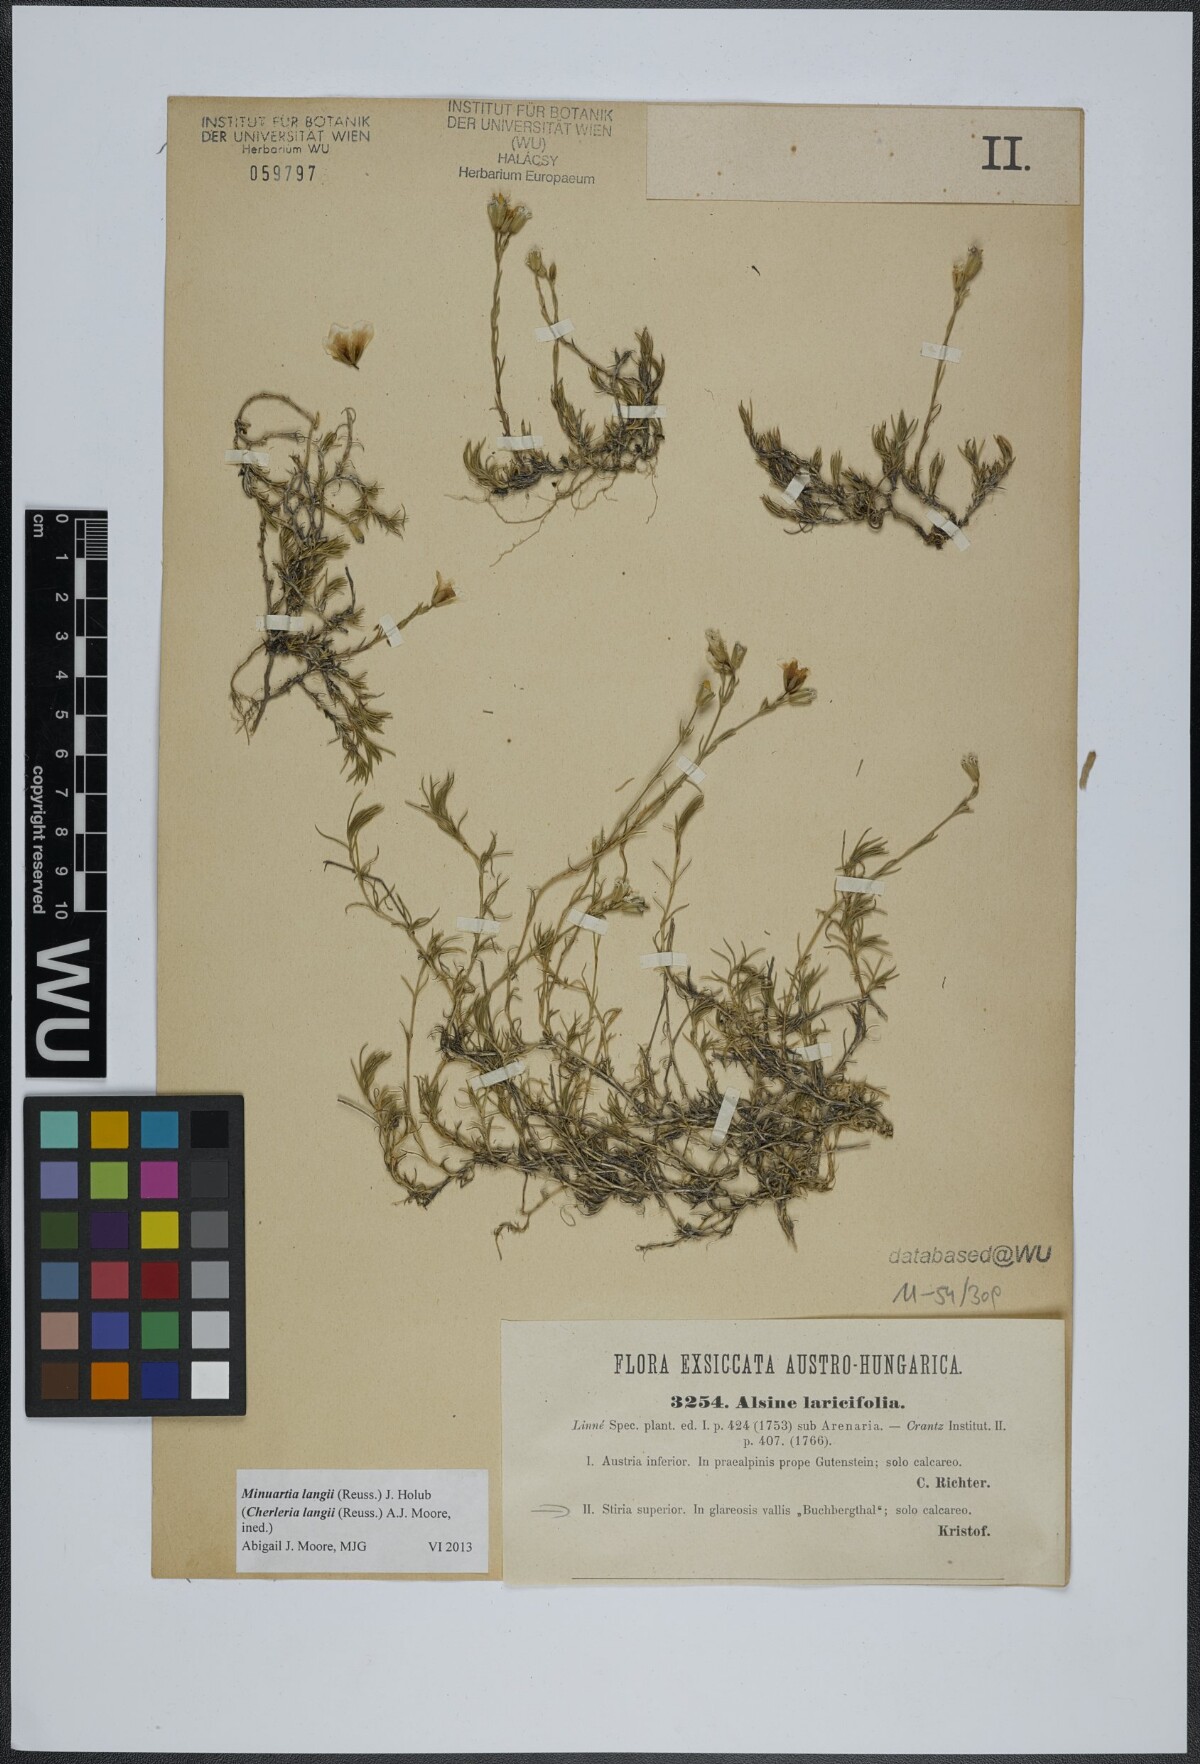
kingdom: Plantae
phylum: Tracheophyta
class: Magnoliopsida
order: Caryophyllales
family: Caryophyllaceae
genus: Cherleria
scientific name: Cherleria langii
